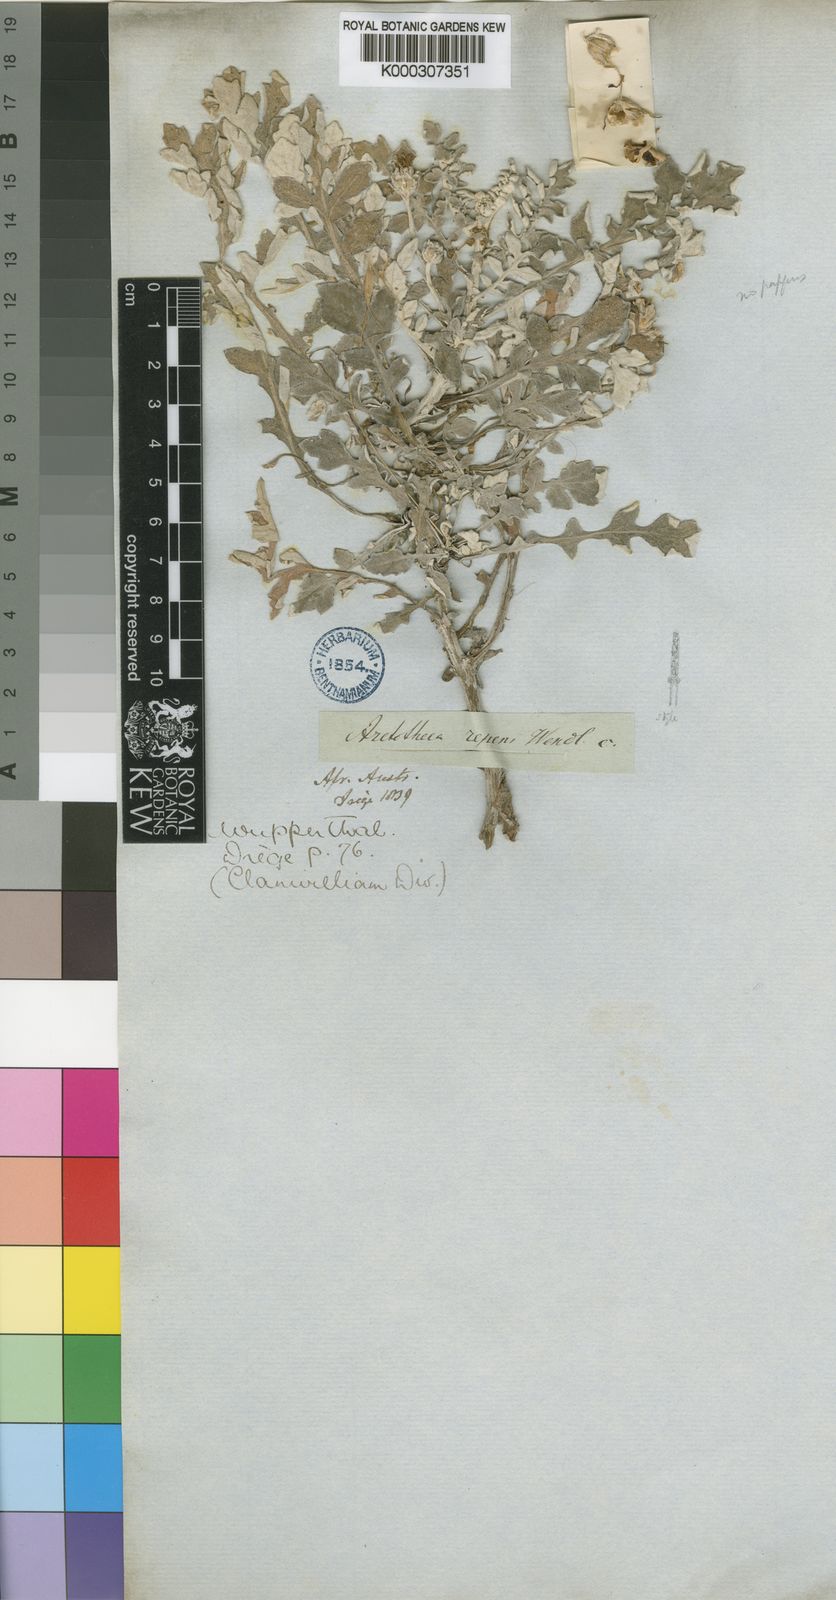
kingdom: Plantae
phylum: Tracheophyta
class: Magnoliopsida
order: Asterales
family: Asteraceae
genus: Arctotheca
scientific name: Arctotheca prostrata
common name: Capeweed
